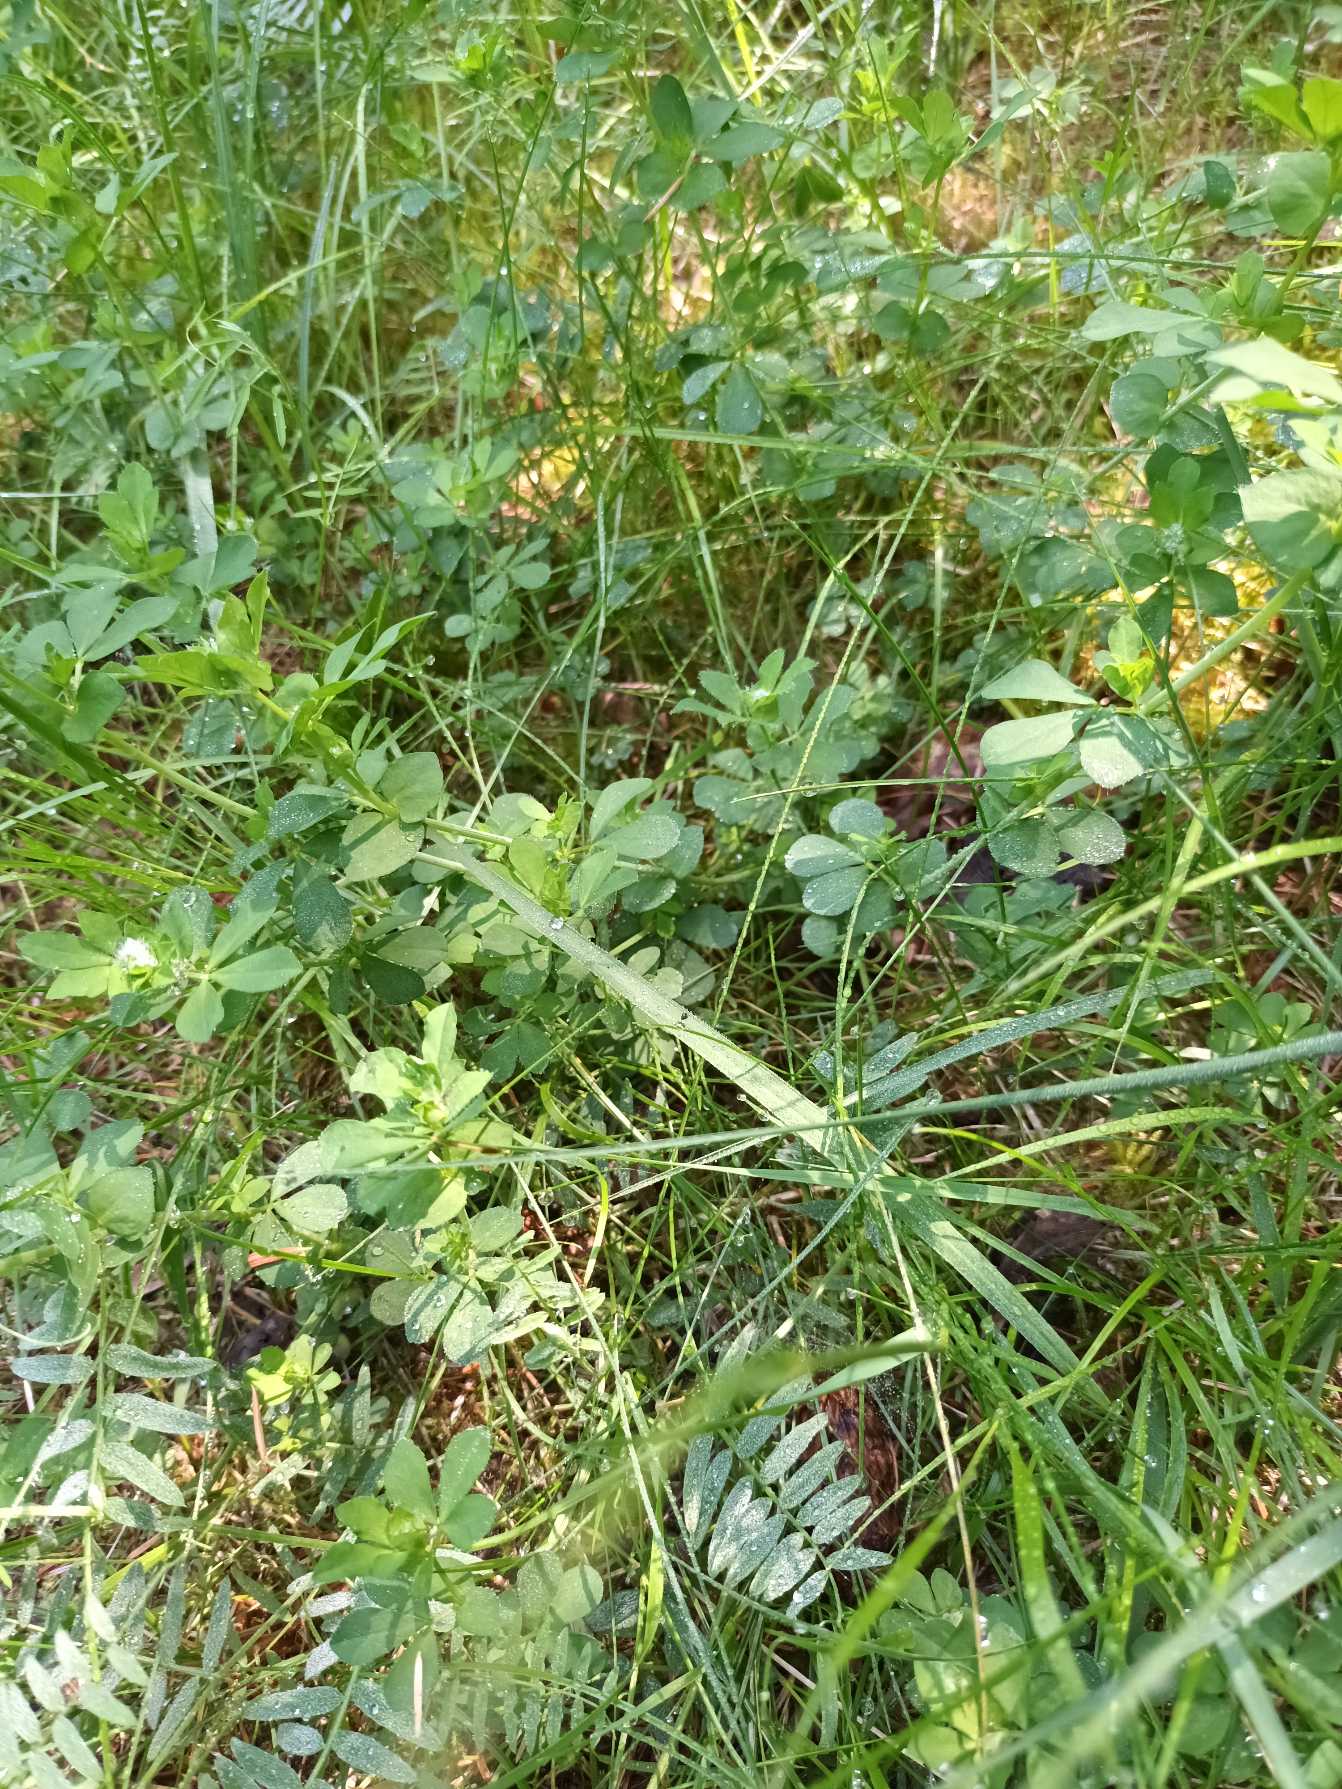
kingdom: Plantae
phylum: Tracheophyta
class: Magnoliopsida
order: Fabales
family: Fabaceae
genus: Lotus
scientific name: Lotus pedunculatus
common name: Sump-kællingetand
